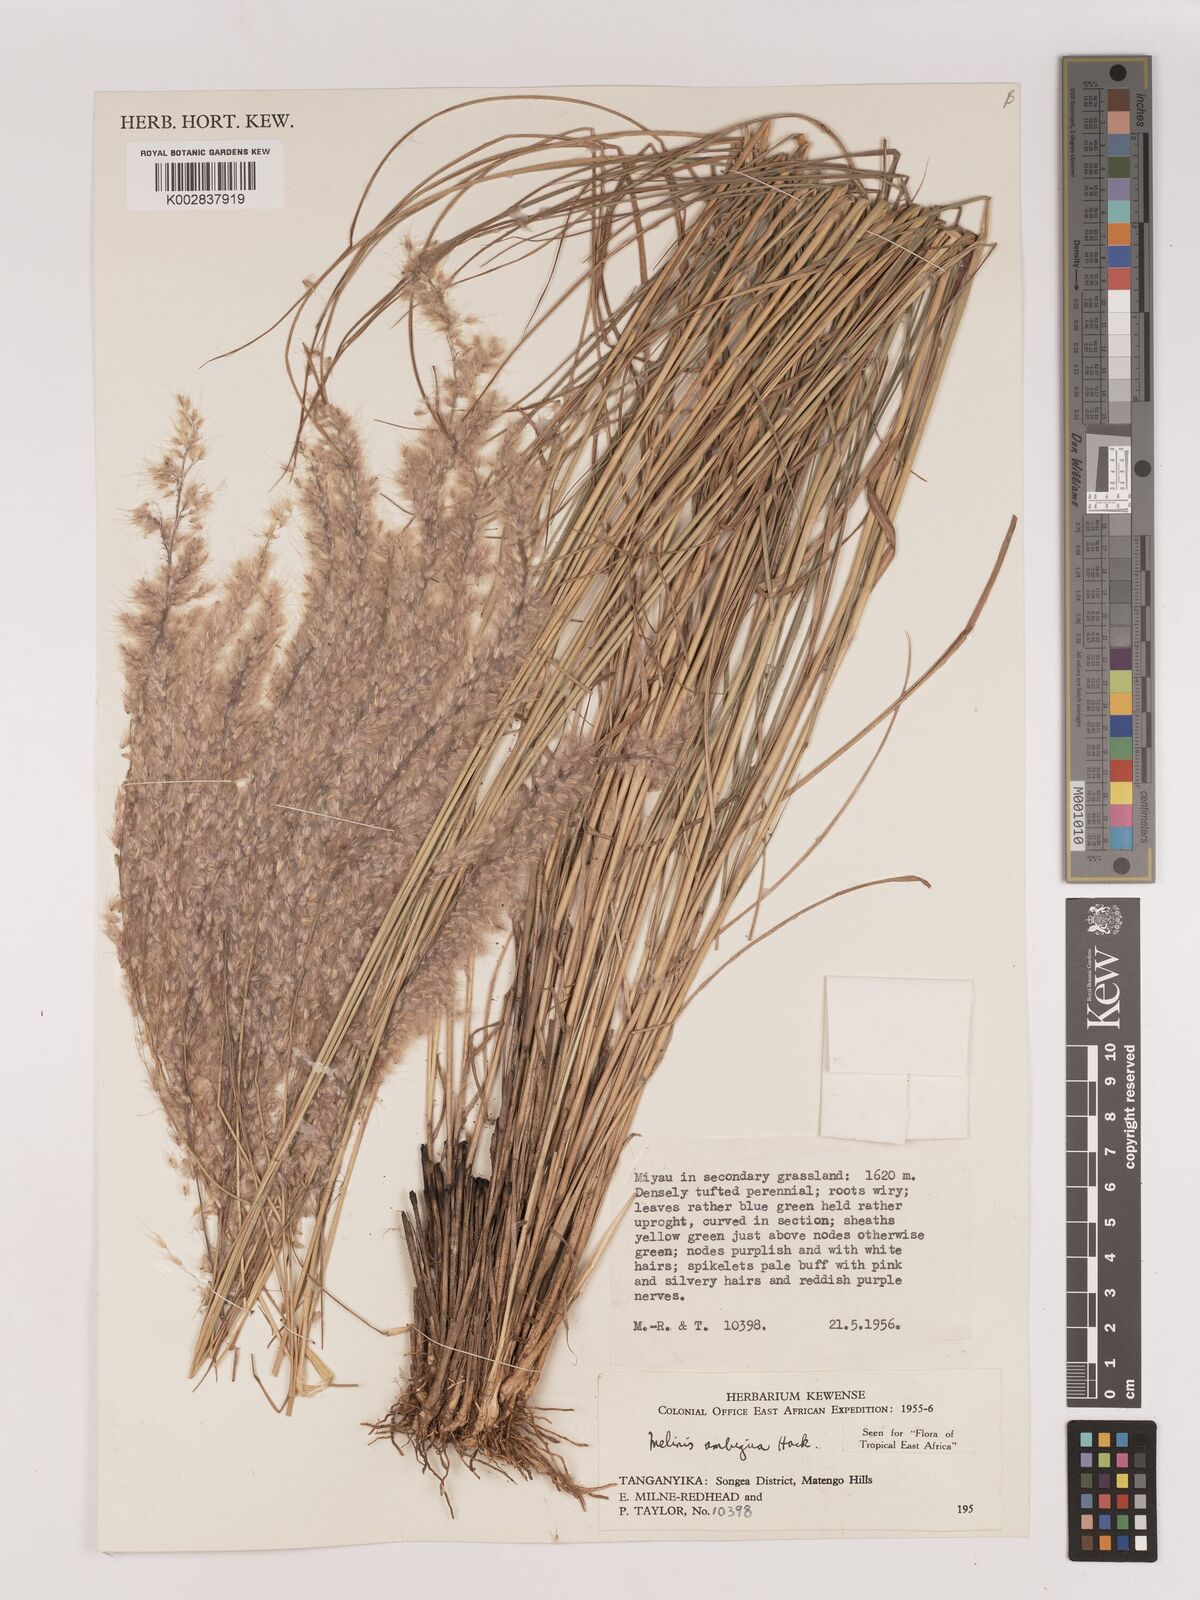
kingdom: Plantae
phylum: Tracheophyta
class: Liliopsida
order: Poales
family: Poaceae
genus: Melinis
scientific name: Melinis ambigua
